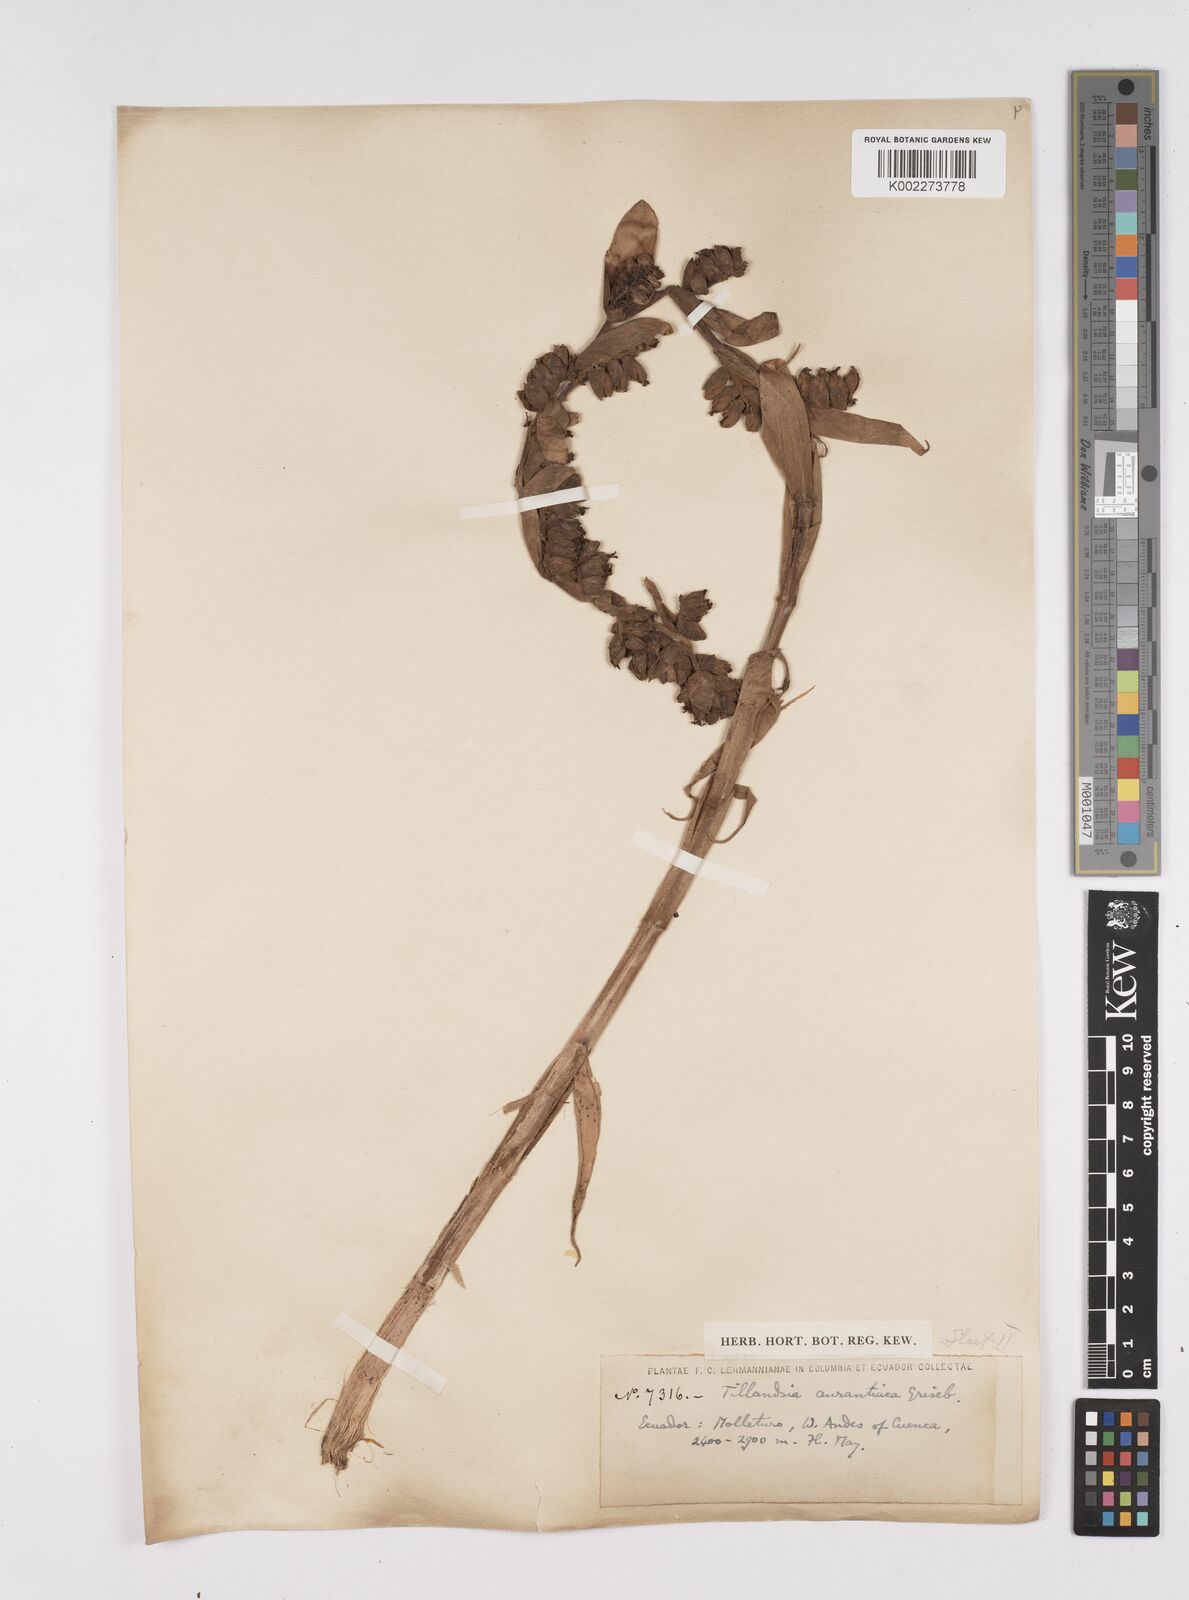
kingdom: Plantae
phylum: Tracheophyta
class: Liliopsida
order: Poales
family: Bromeliaceae
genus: Racinaea
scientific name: Racinaea tetrantha
